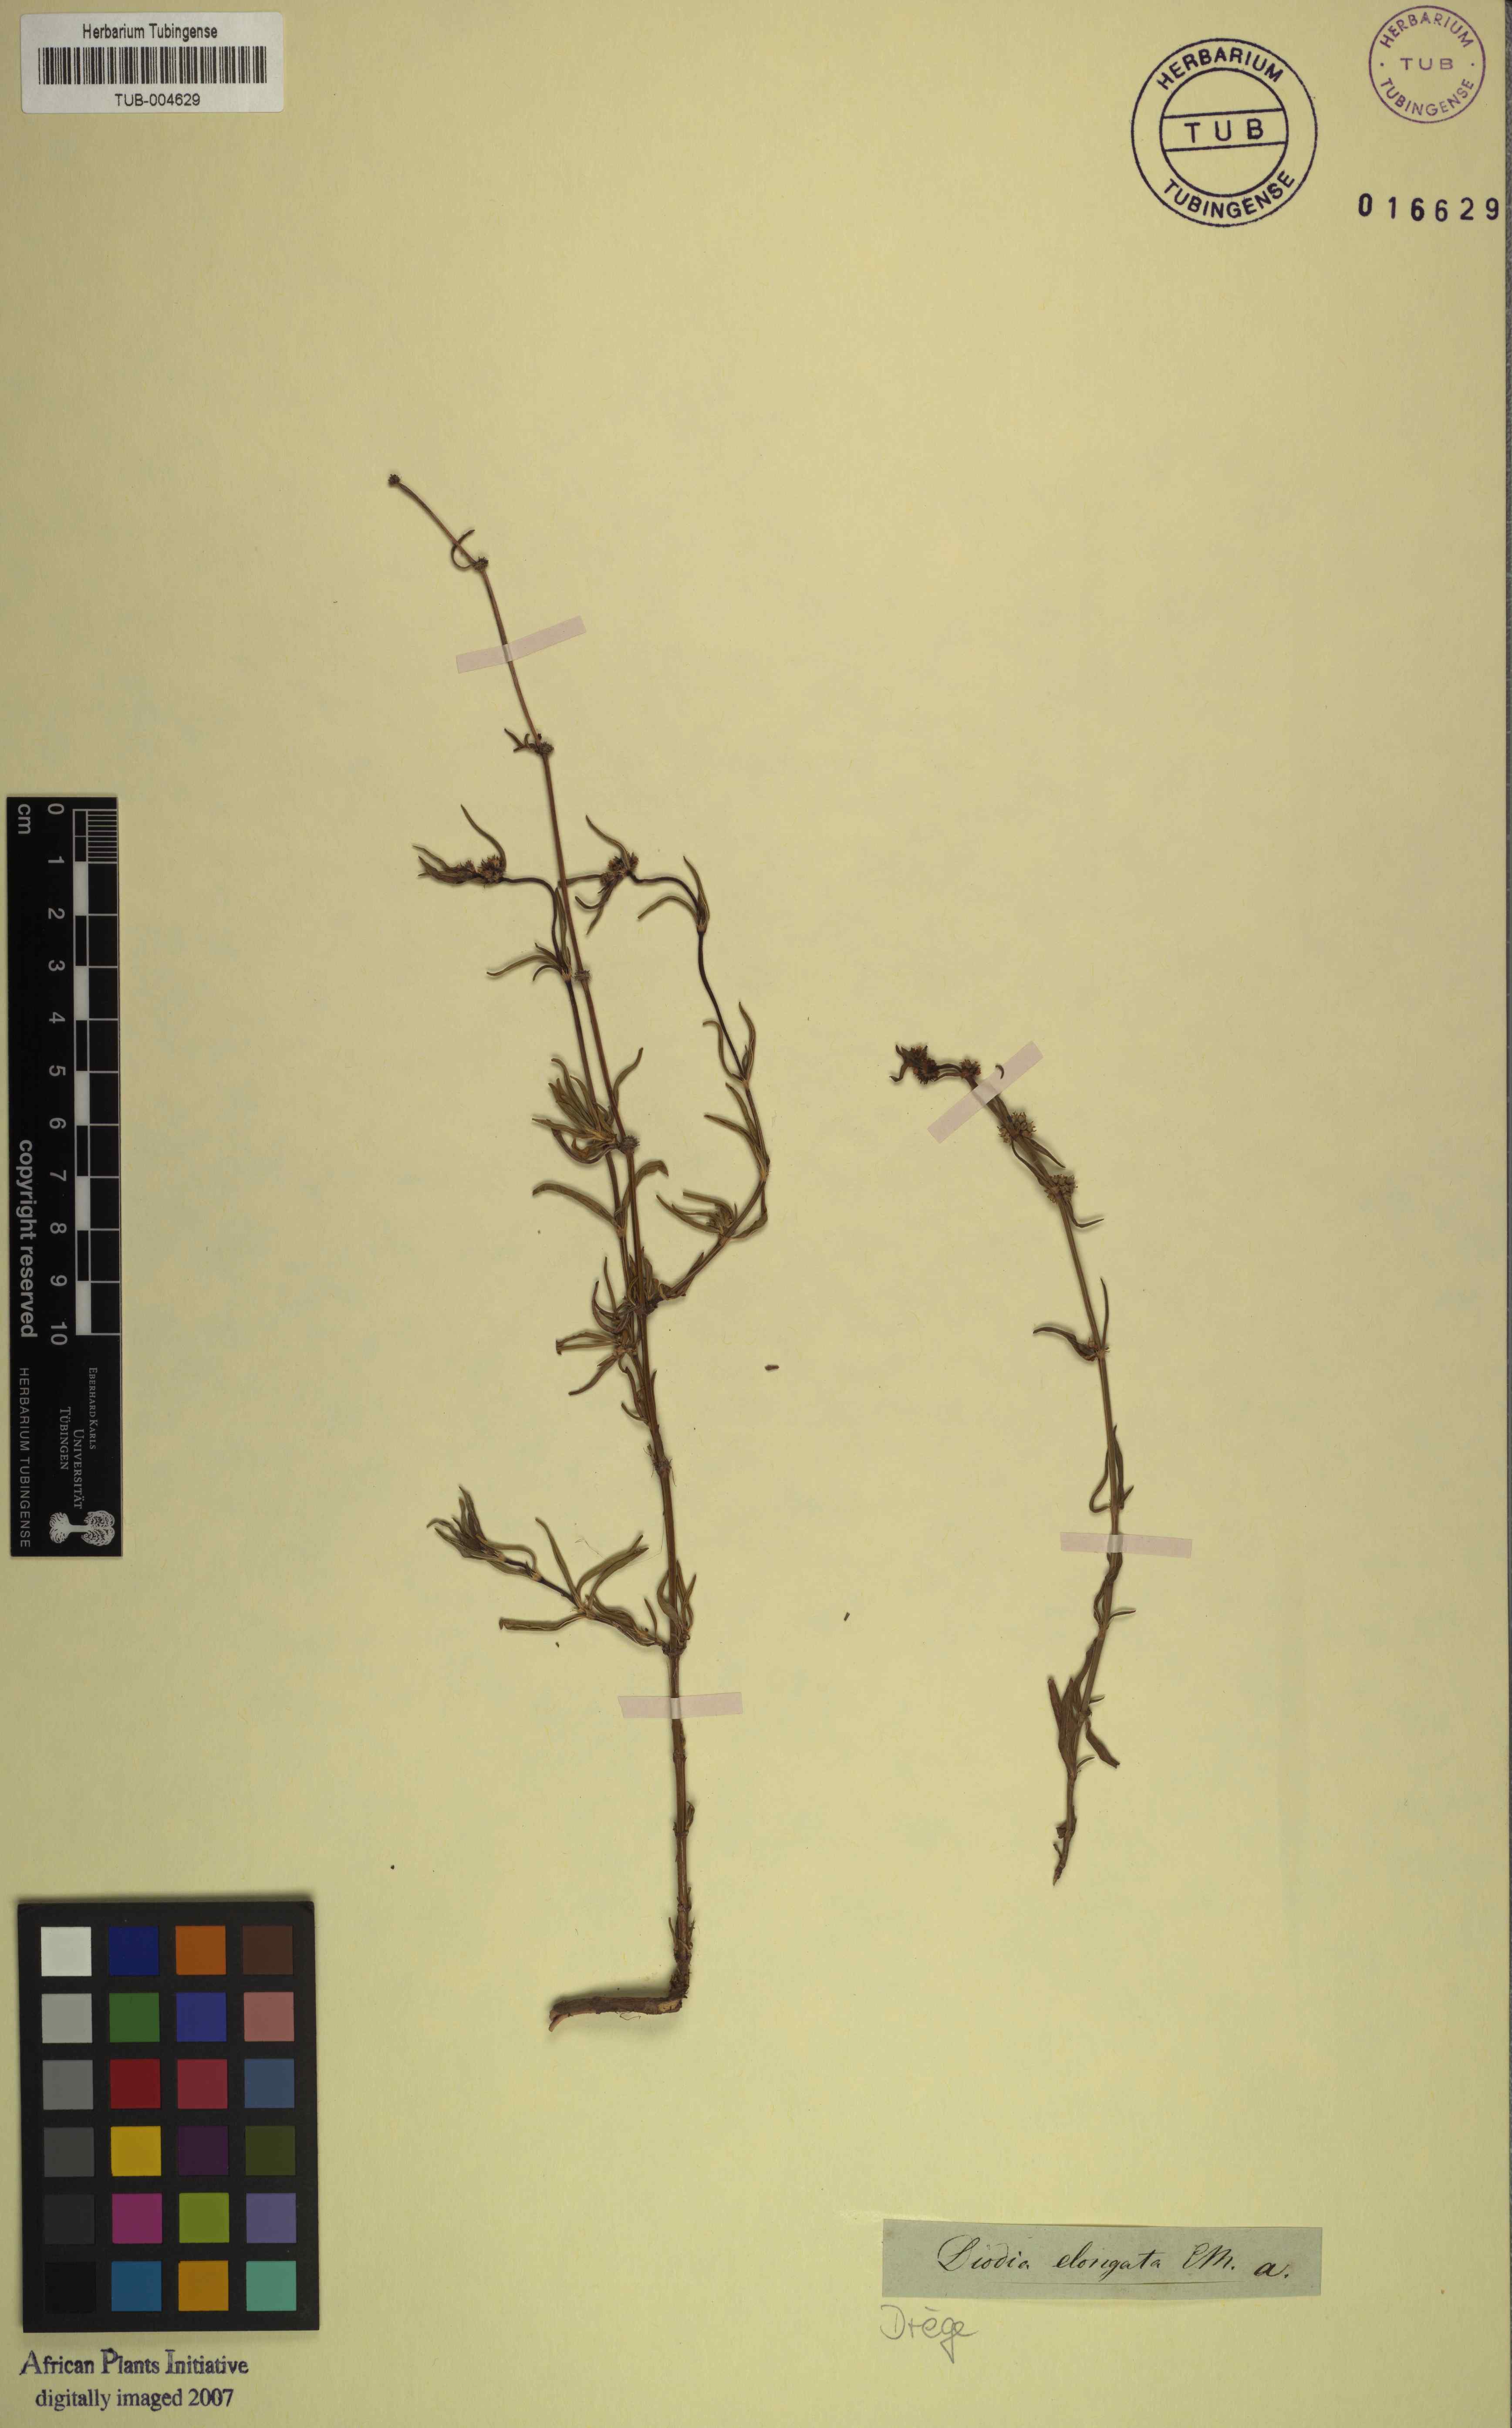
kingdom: Plantae
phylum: Tracheophyta
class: Magnoliopsida
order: Gentianales
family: Rubiaceae
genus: Spermacoce
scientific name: Spermacoce natalensis
